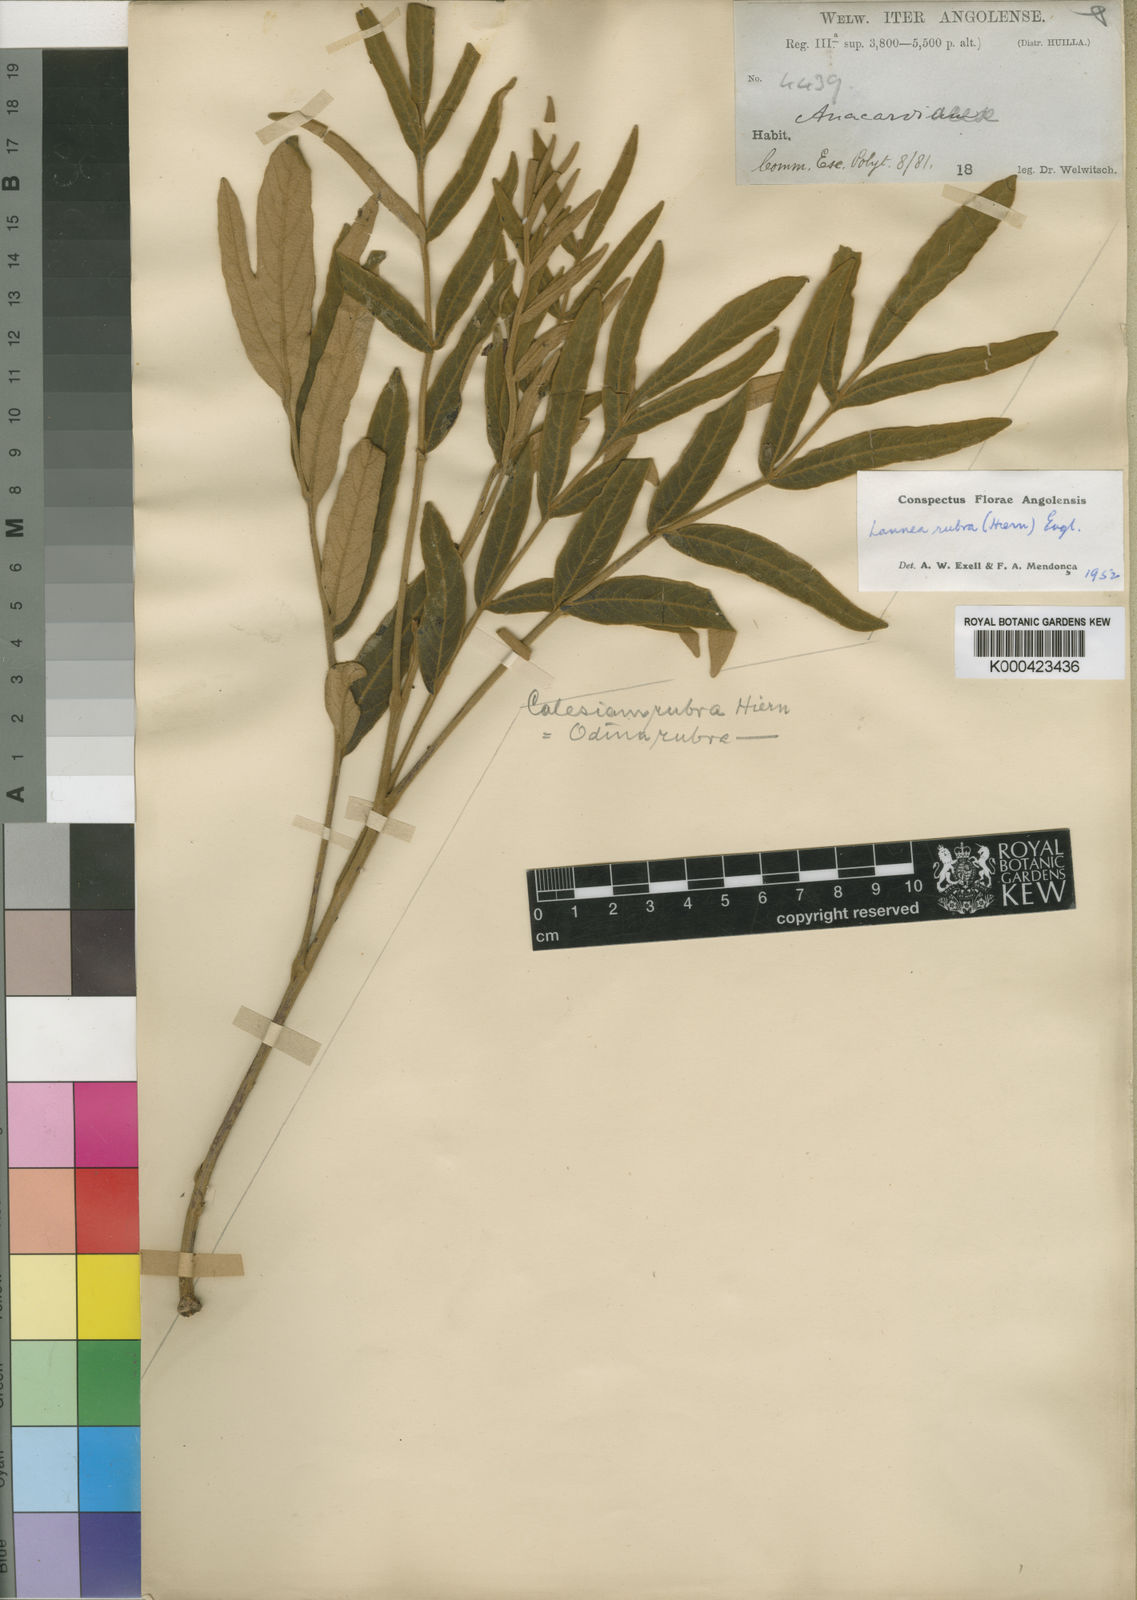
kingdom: Plantae
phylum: Tracheophyta
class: Magnoliopsida
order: Sapindales
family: Anacardiaceae
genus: Lannea
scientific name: Lannea rubra
